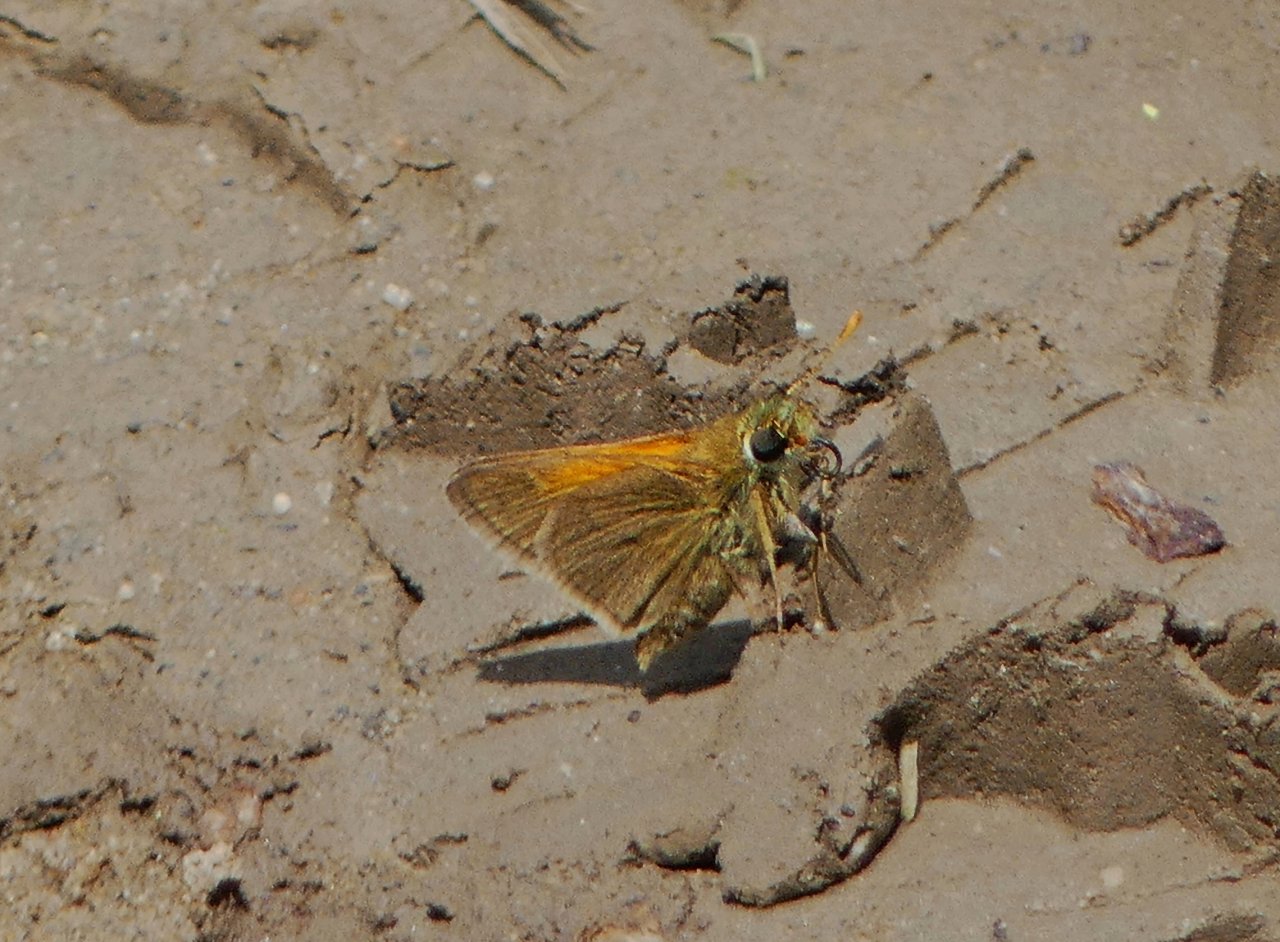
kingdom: Animalia
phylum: Arthropoda
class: Insecta
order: Lepidoptera
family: Hesperiidae
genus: Polites
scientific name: Polites themistocles
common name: Tawny-edged Skipper
